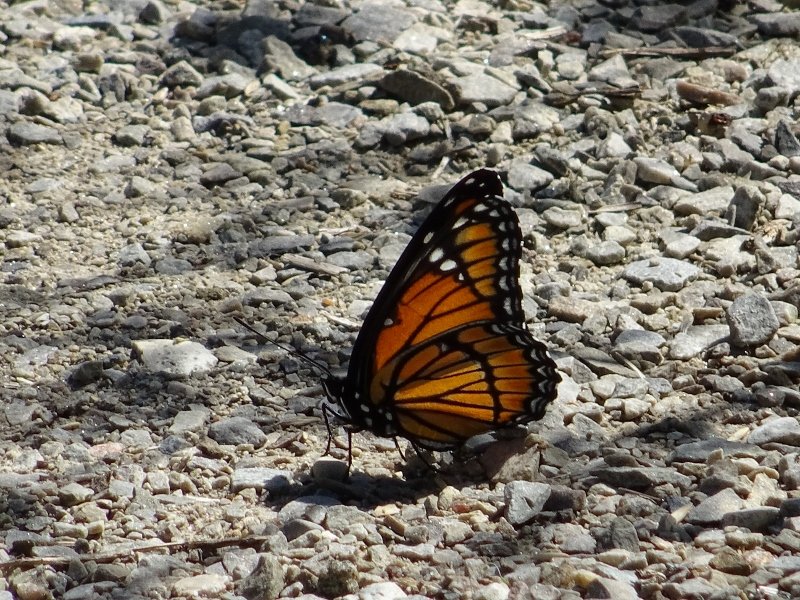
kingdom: Animalia
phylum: Arthropoda
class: Insecta
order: Lepidoptera
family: Nymphalidae
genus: Limenitis
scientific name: Limenitis archippus
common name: Viceroy
